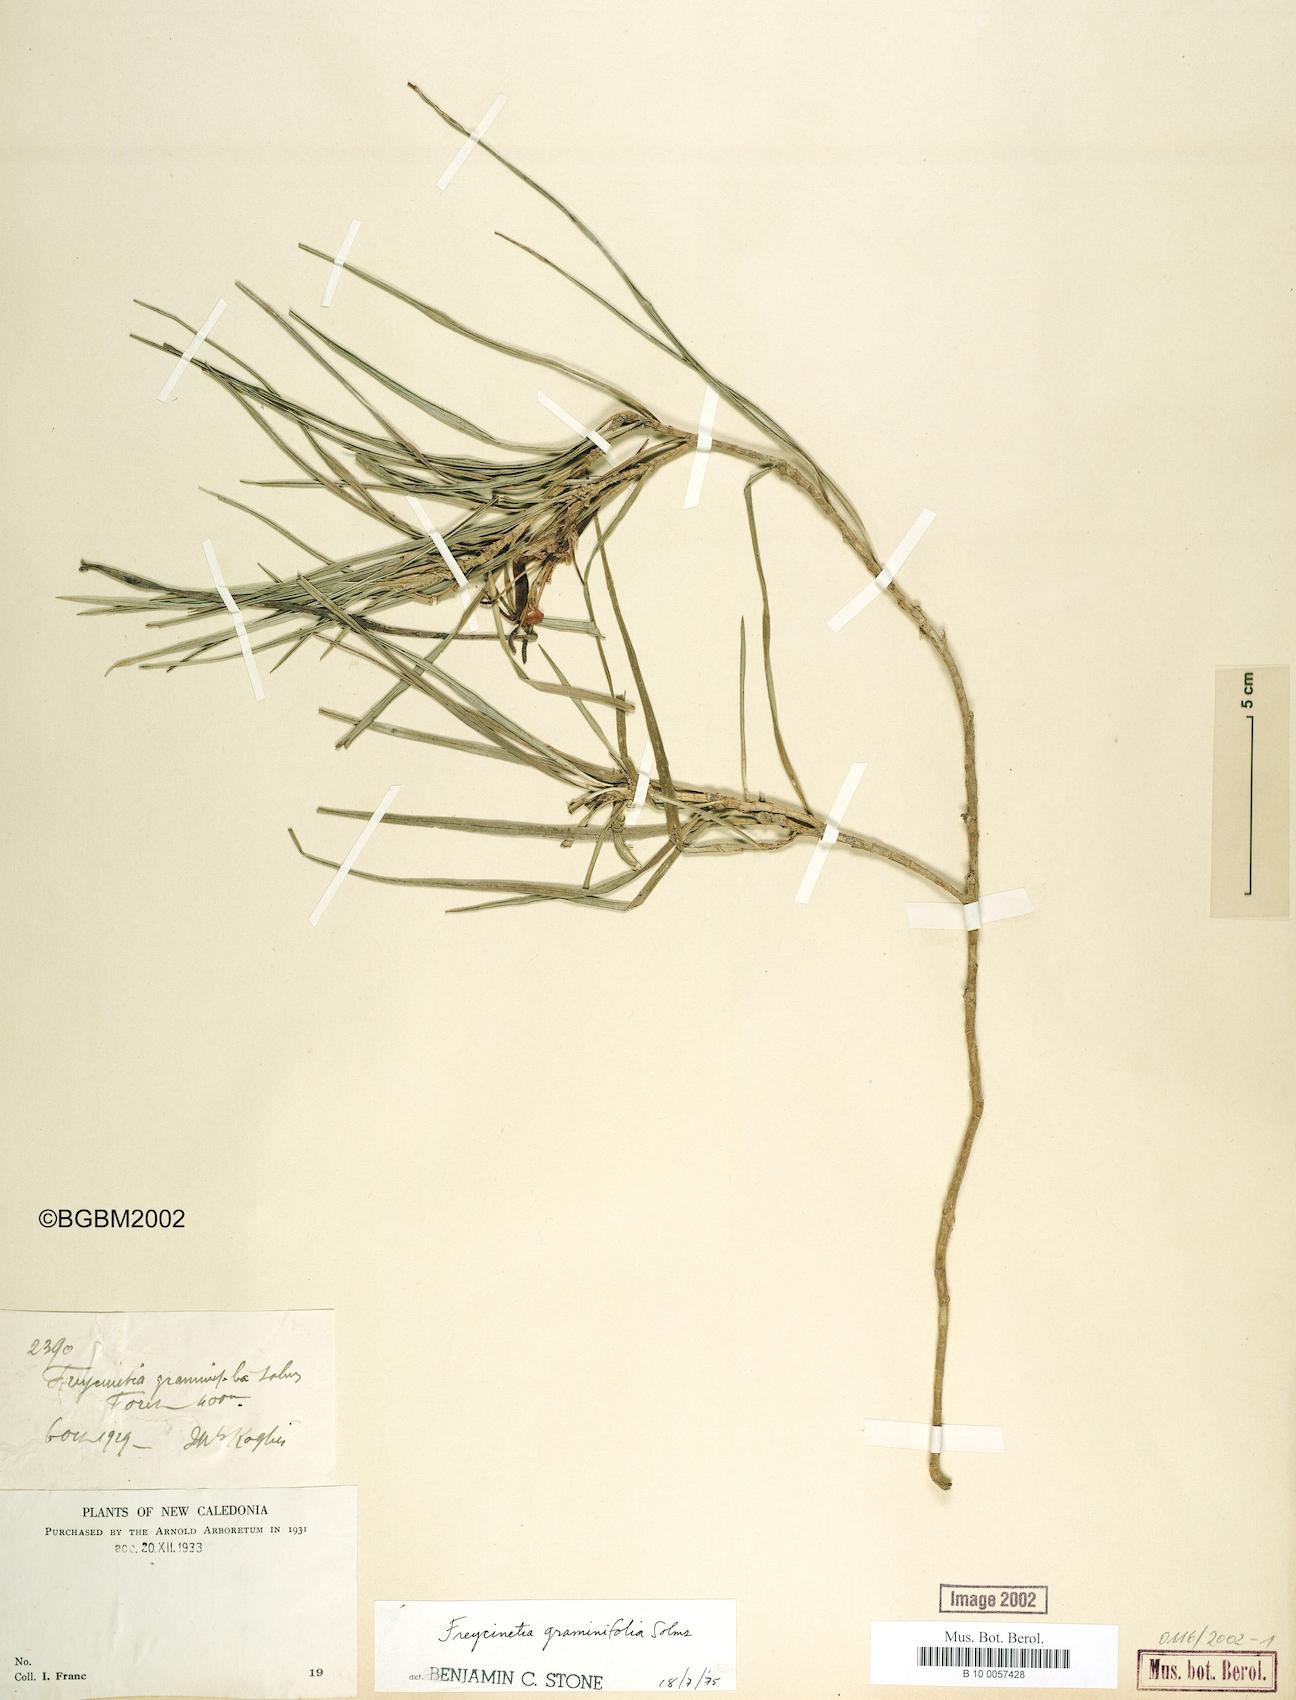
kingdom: Plantae
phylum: Tracheophyta
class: Liliopsida
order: Pandanales
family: Pandanaceae
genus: Freycinetia
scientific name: Freycinetia graminifolia
